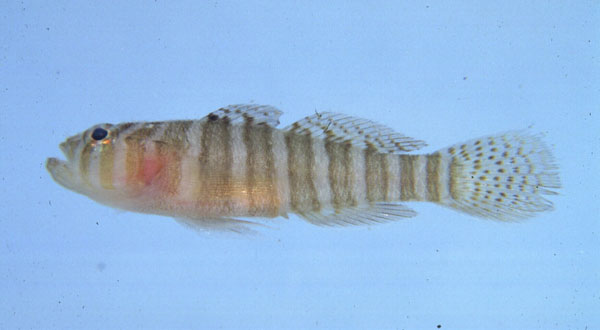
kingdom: Animalia
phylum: Chordata
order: Perciformes
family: Gobiidae
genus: Priolepis
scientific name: Priolepis cincta
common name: Banded reef-goby
